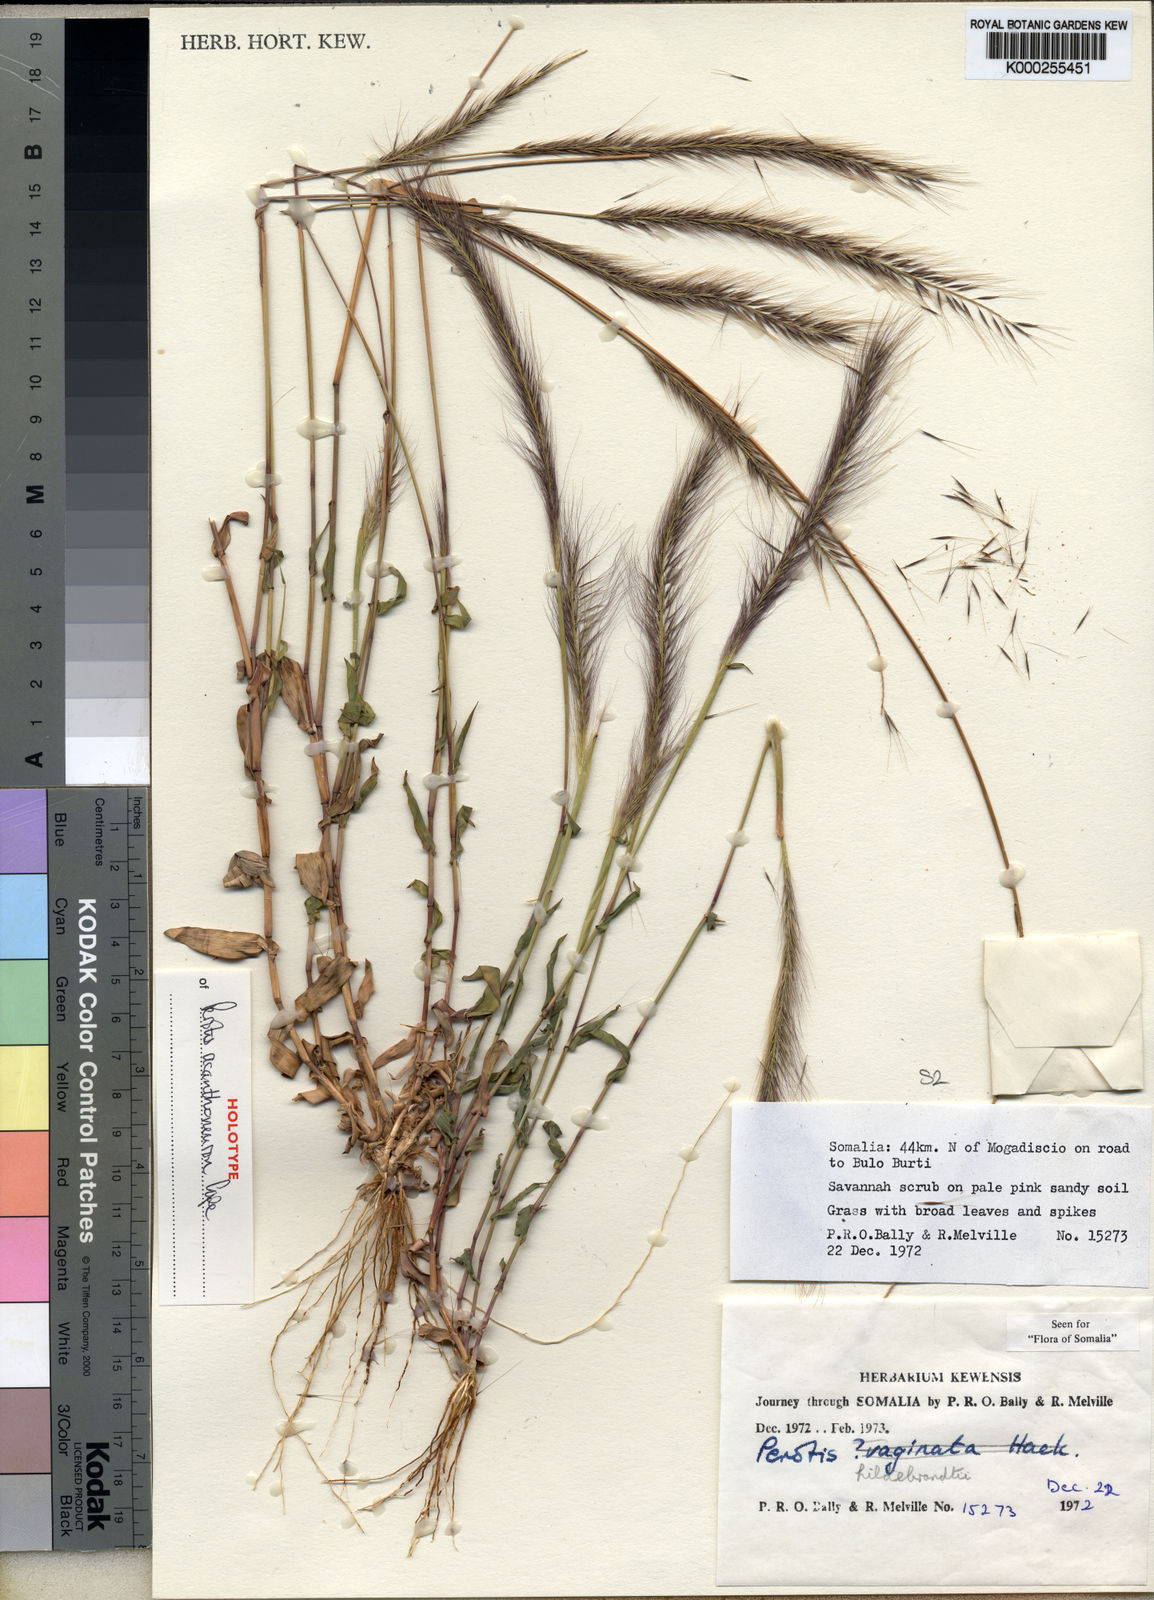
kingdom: Plantae
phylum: Tracheophyta
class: Liliopsida
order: Poales
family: Poaceae
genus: Perotis
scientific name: Perotis acanthoneuron
